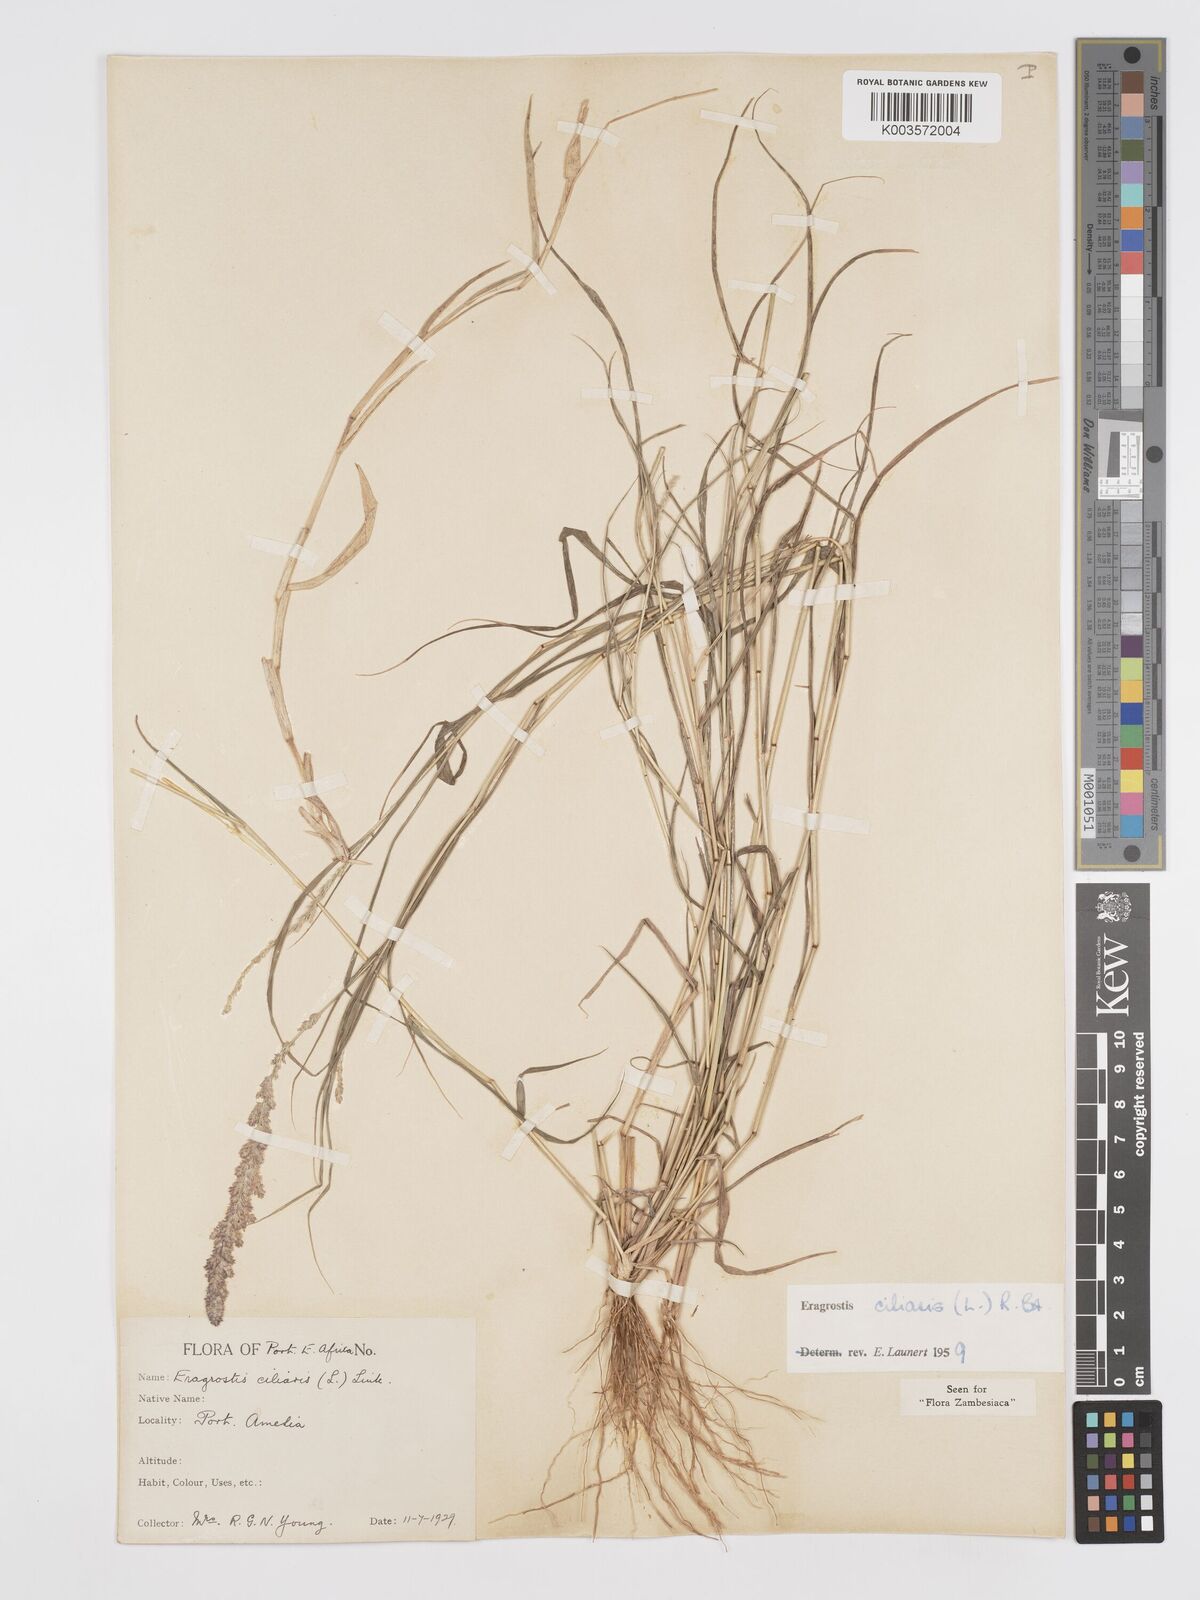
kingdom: Plantae
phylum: Tracheophyta
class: Liliopsida
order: Poales
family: Poaceae
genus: Eragrostis
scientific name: Eragrostis ciliaris
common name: Gophertail lovegrass
